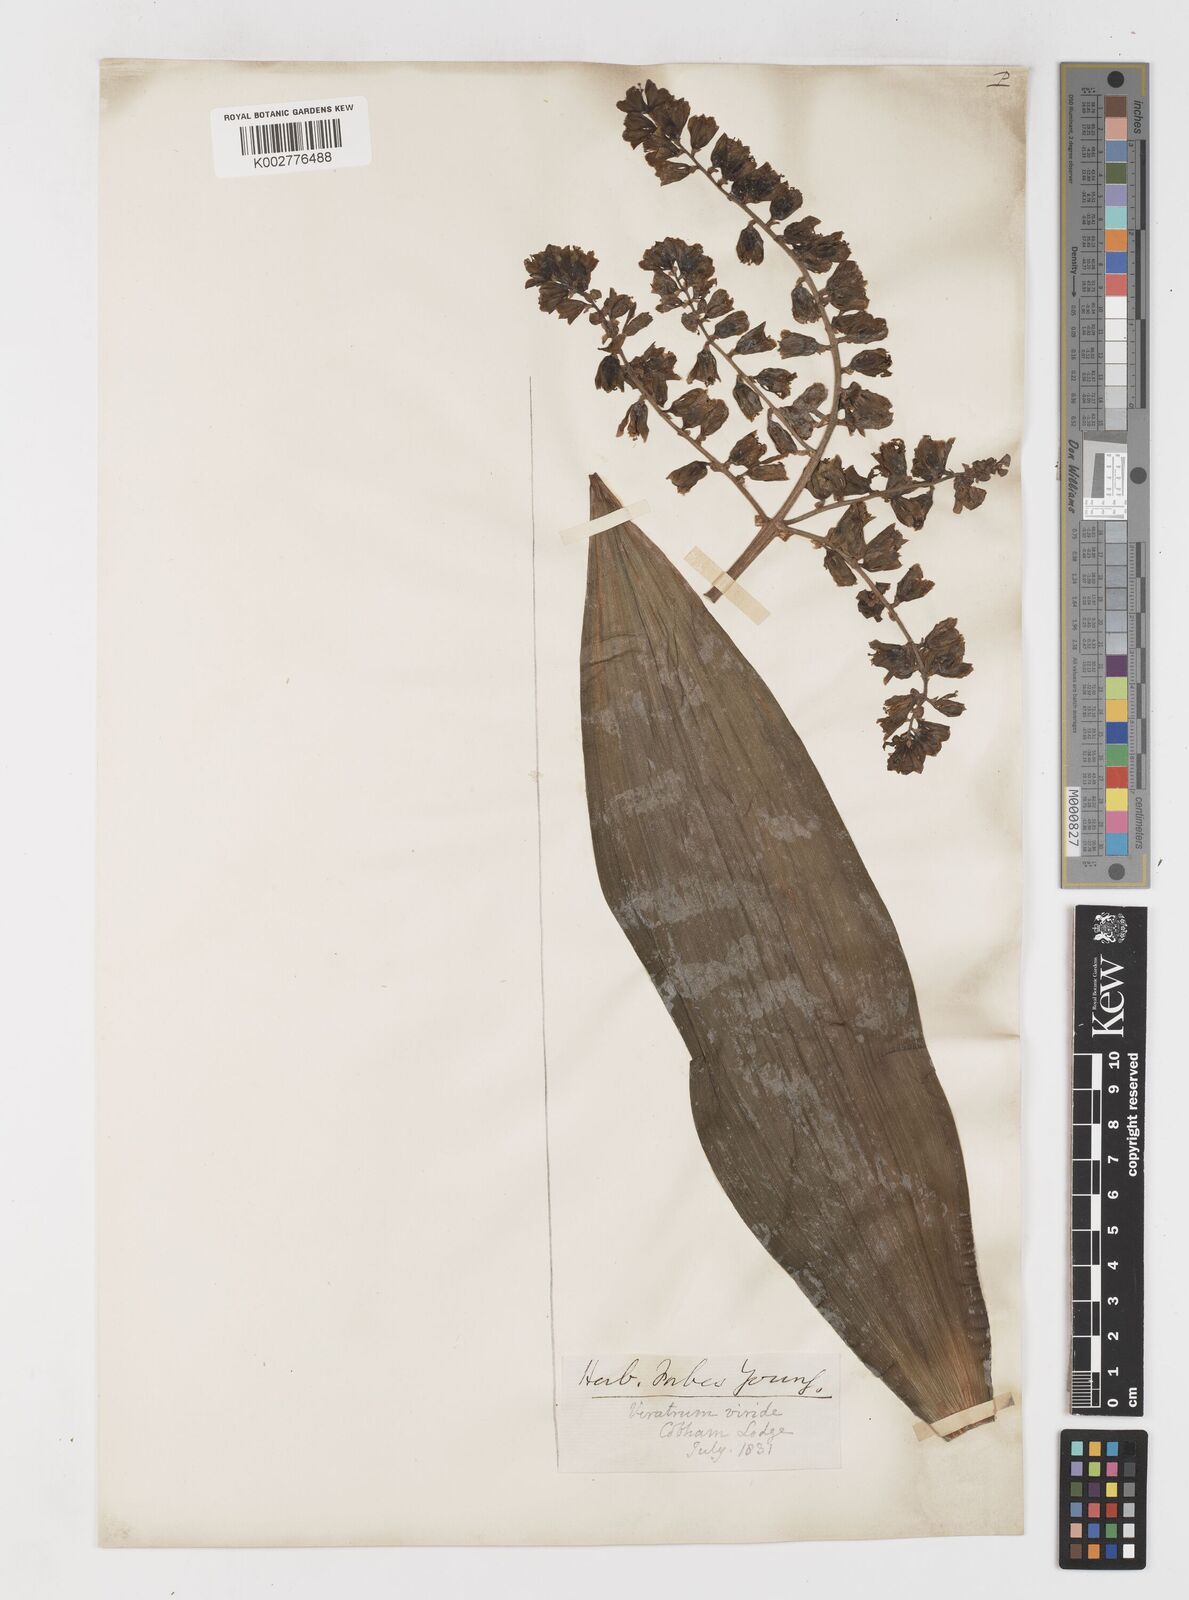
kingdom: Plantae
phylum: Tracheophyta
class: Liliopsida
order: Liliales
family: Melanthiaceae
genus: Veratrum
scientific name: Veratrum viride
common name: American false hellebore
